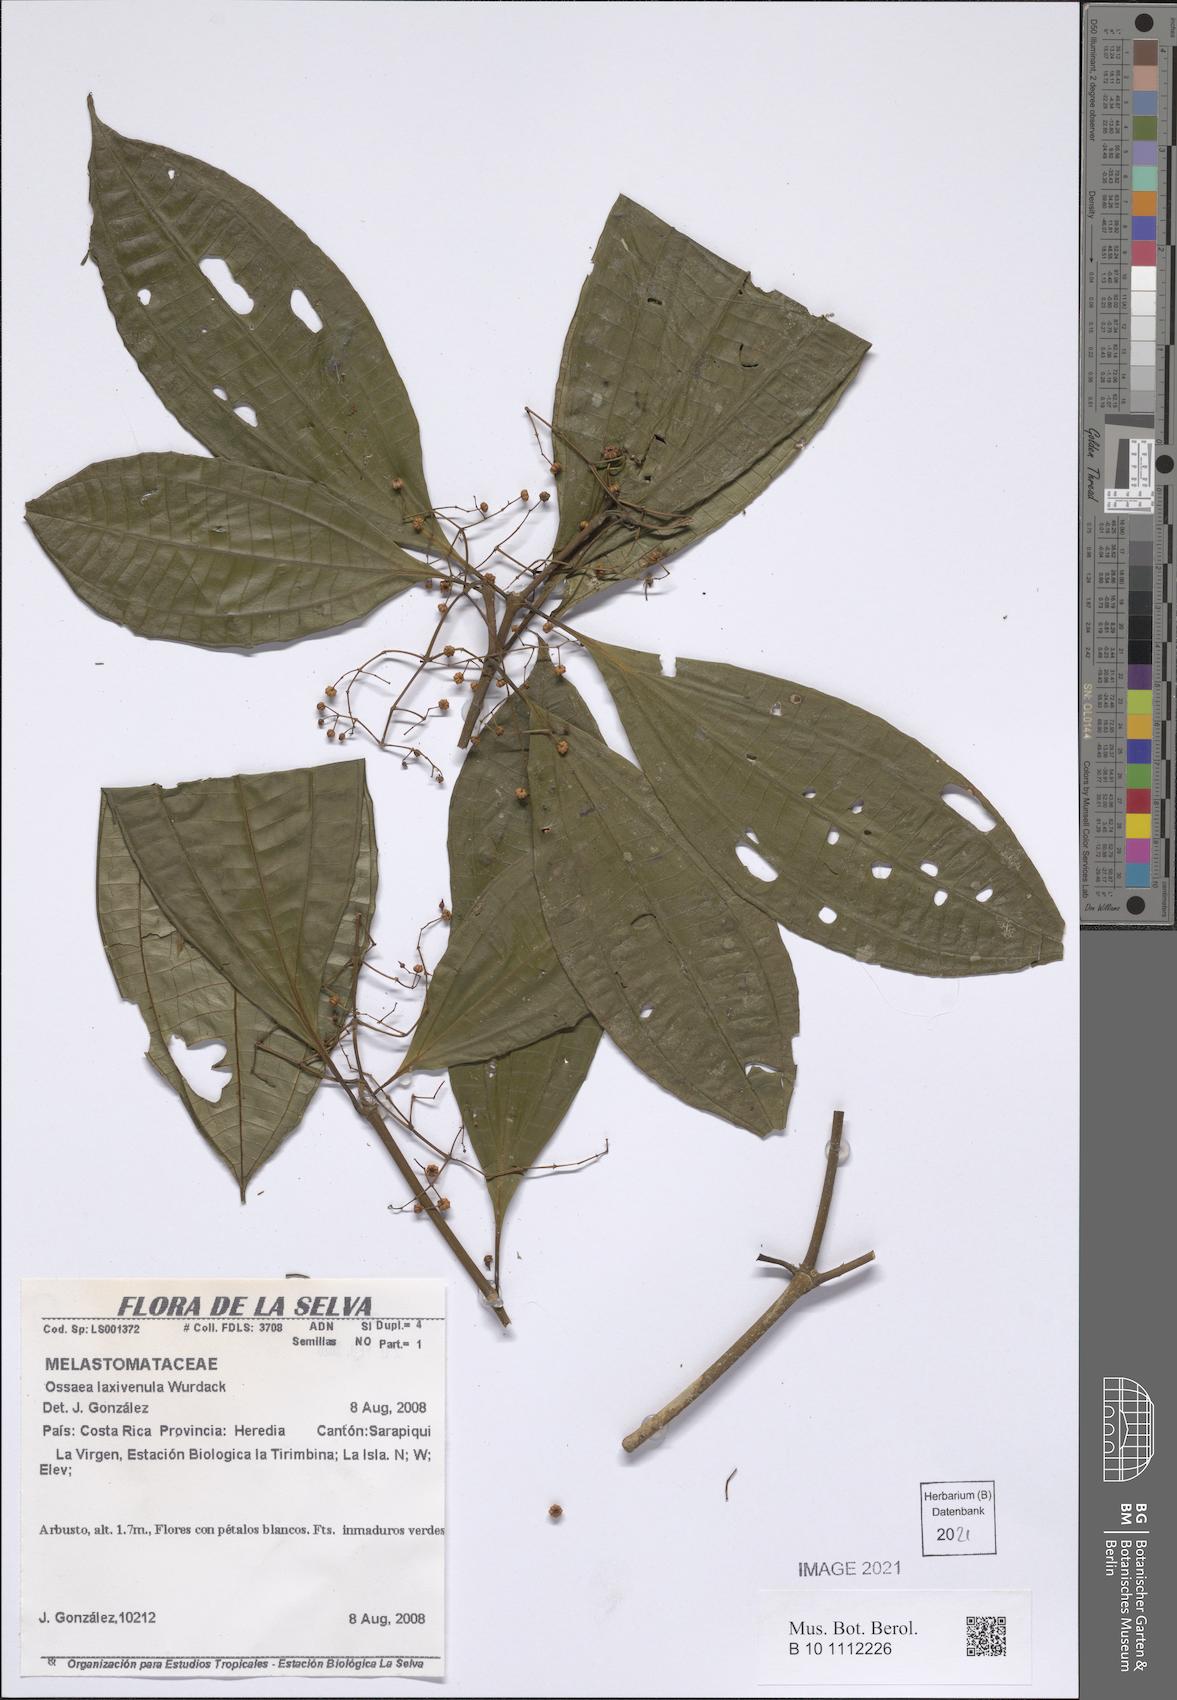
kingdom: Plantae
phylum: Tracheophyta
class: Magnoliopsida
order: Myrtales
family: Melastomataceae
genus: Miconia
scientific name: Miconia laxivenula
